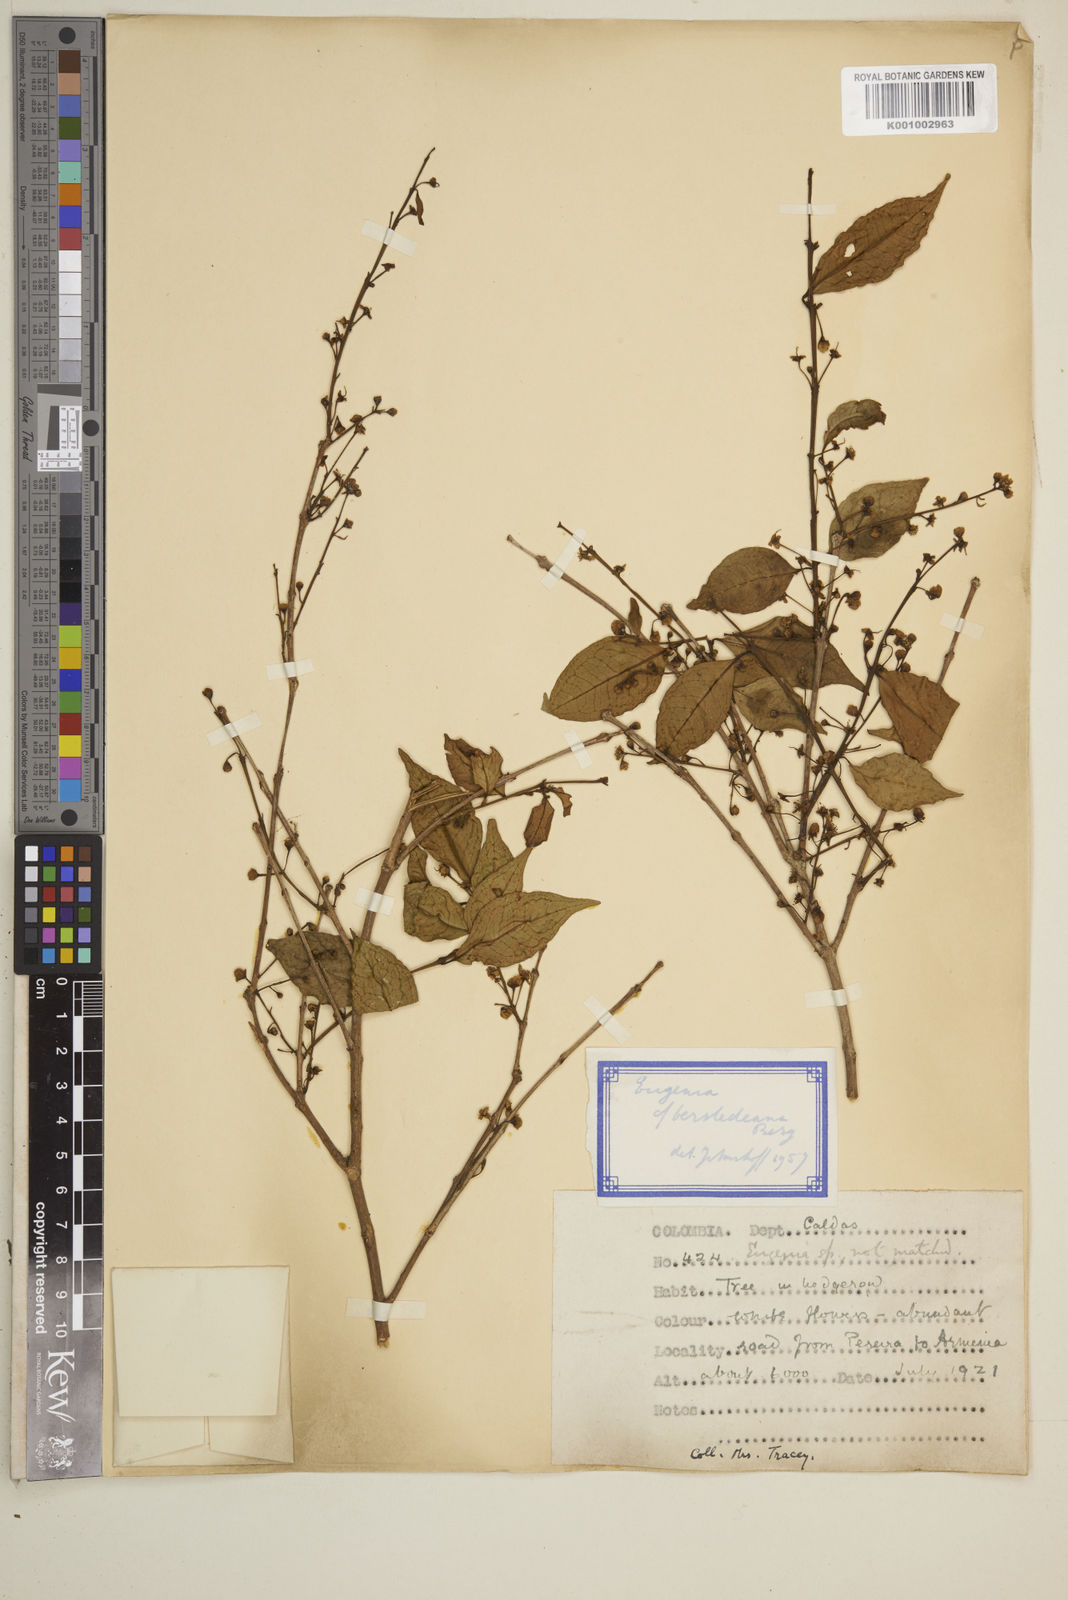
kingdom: Plantae
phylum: Tracheophyta
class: Magnoliopsida
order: Myrtales
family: Myrtaceae
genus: Eugenia
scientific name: Eugenia oerstediana
